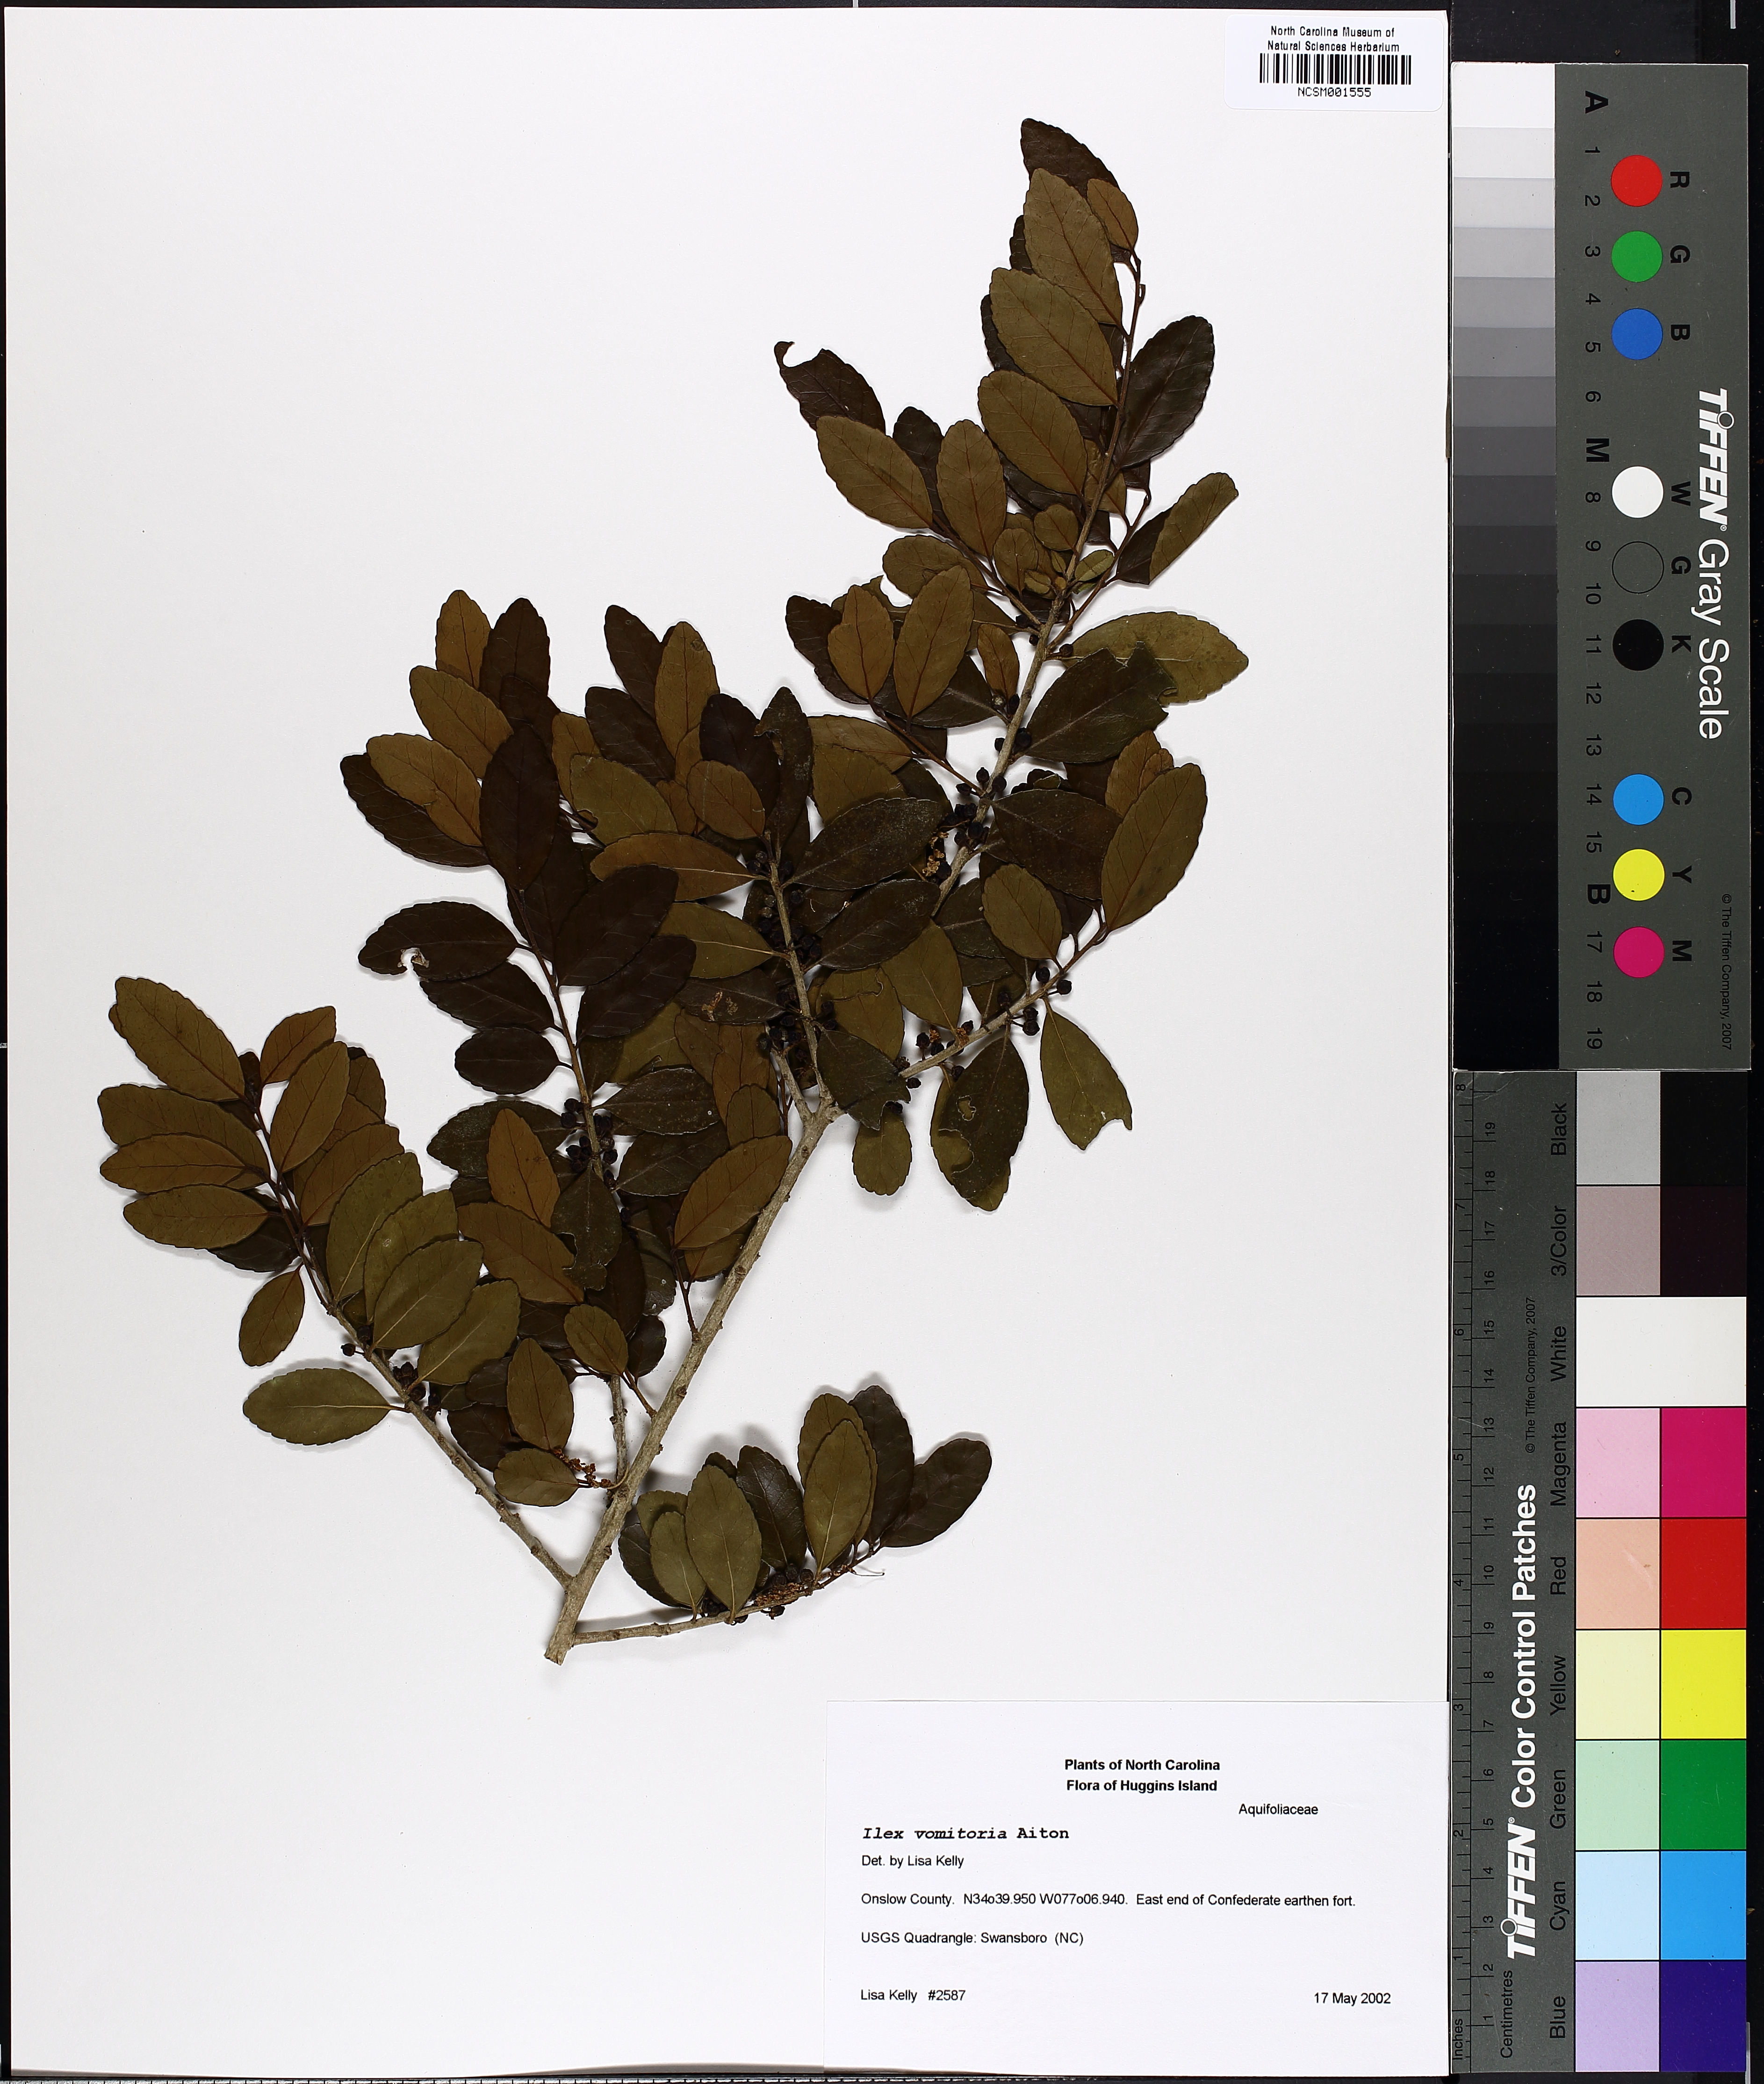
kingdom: Plantae
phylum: Tracheophyta
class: Magnoliopsida
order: Aquifoliales
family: Aquifoliaceae
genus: Ilex
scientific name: Ilex vomitoria
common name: Yaupon holly
